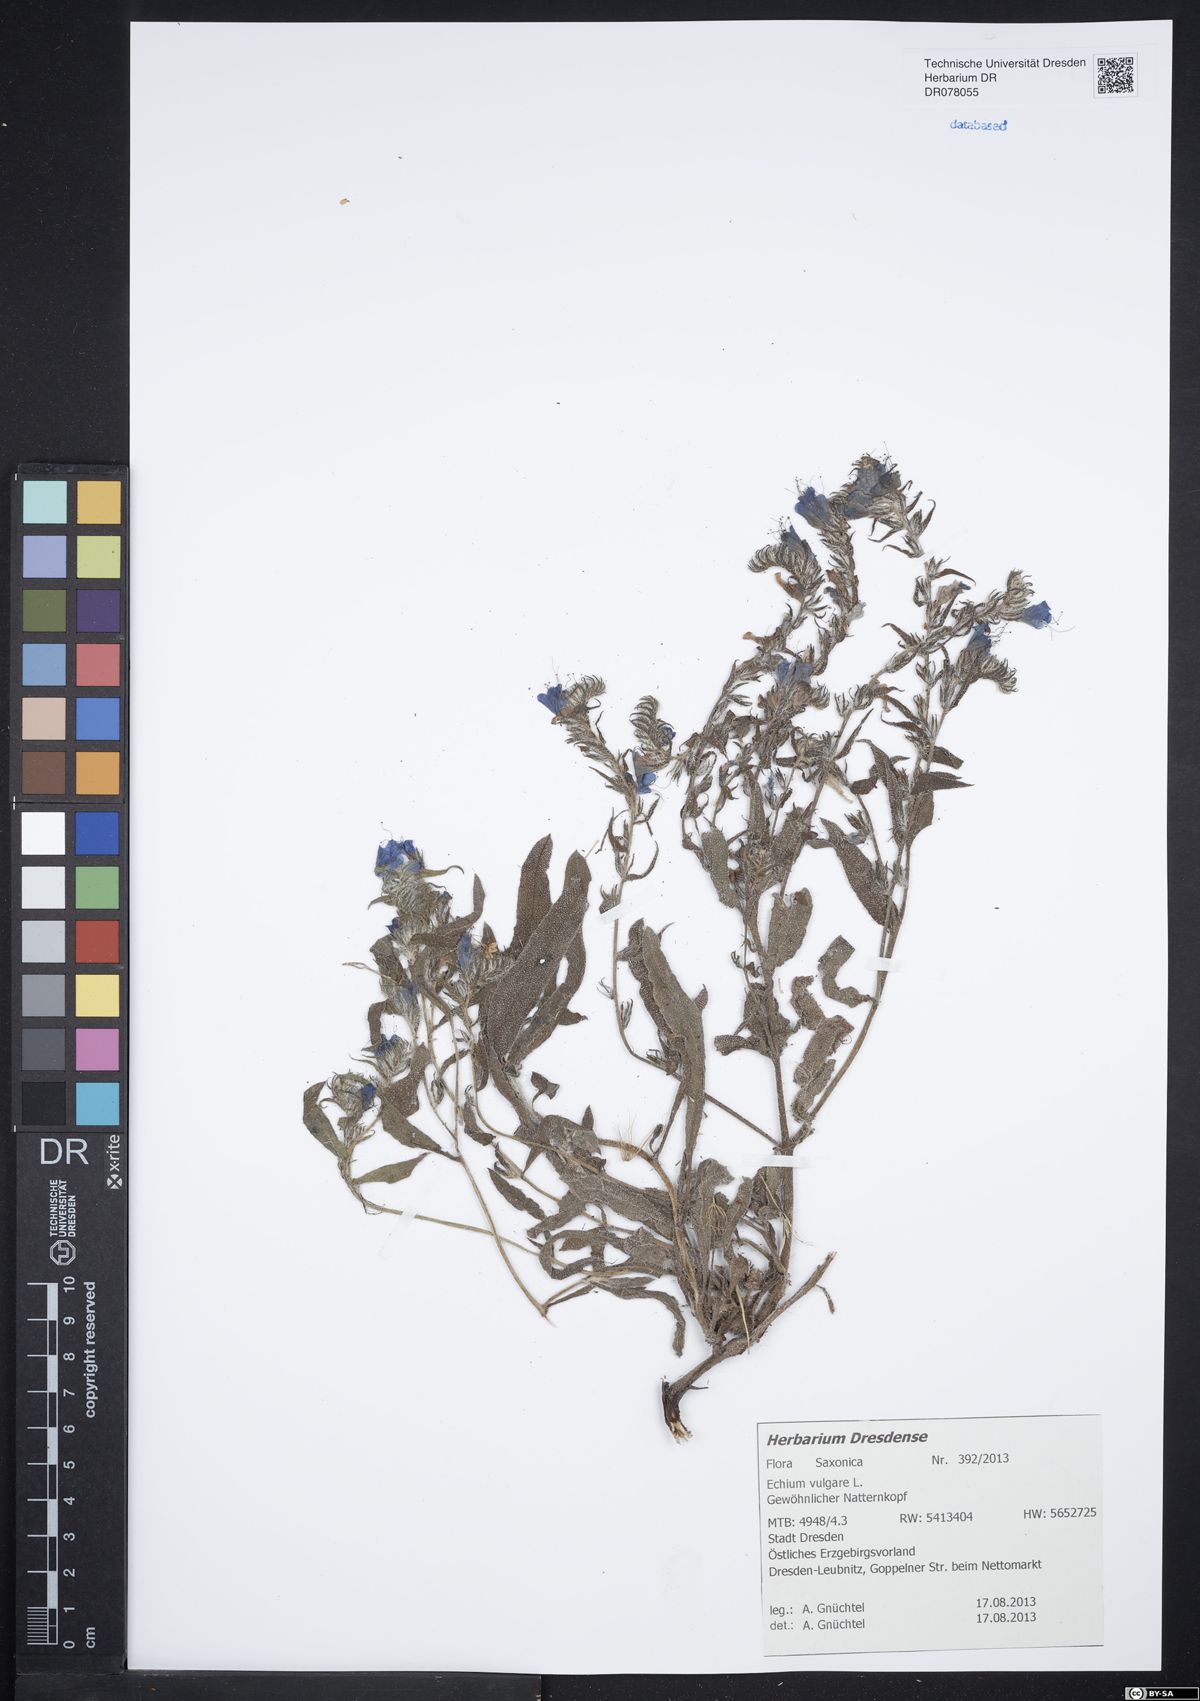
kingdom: Plantae
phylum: Tracheophyta
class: Magnoliopsida
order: Boraginales
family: Boraginaceae
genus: Echium
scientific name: Echium vulgare
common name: Common viper's bugloss
